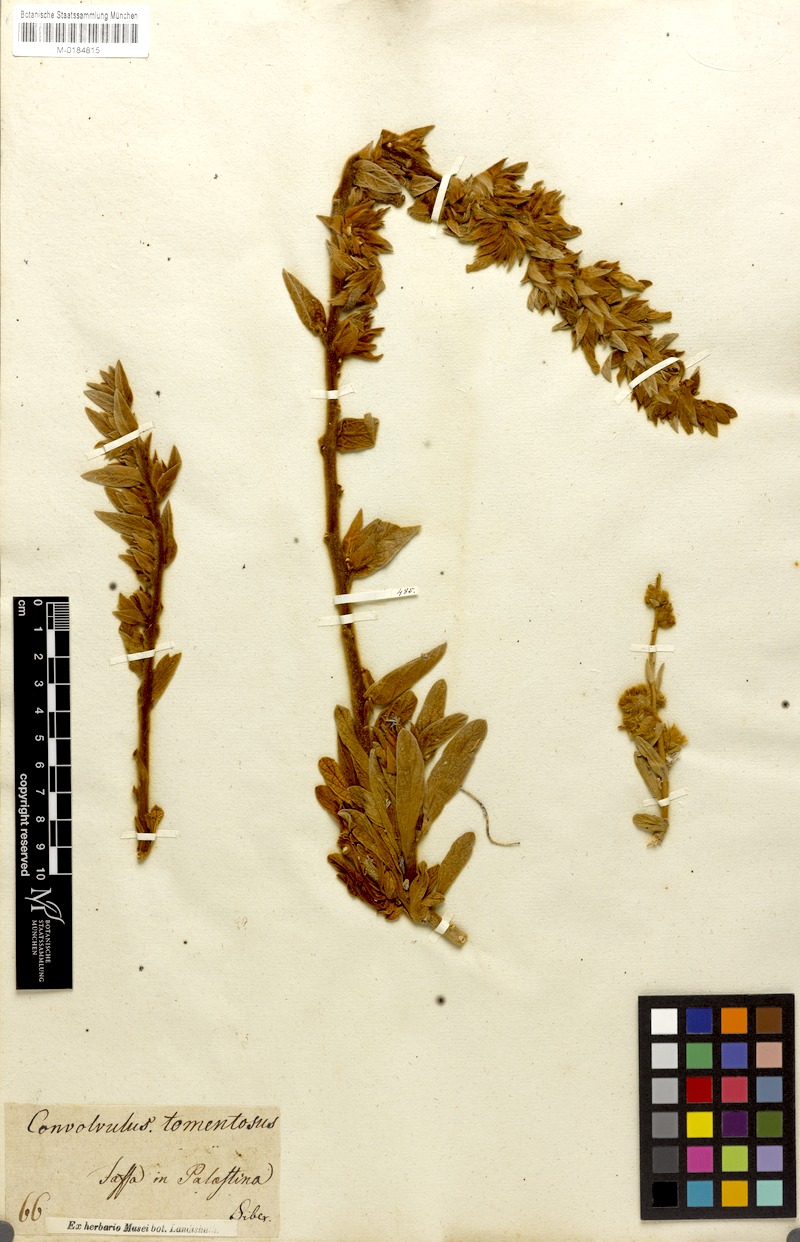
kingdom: Plantae
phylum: Tracheophyta
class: Magnoliopsida
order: Solanales
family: Convolvulaceae
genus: Jacquemontia
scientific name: Jacquemontia unilateralis
